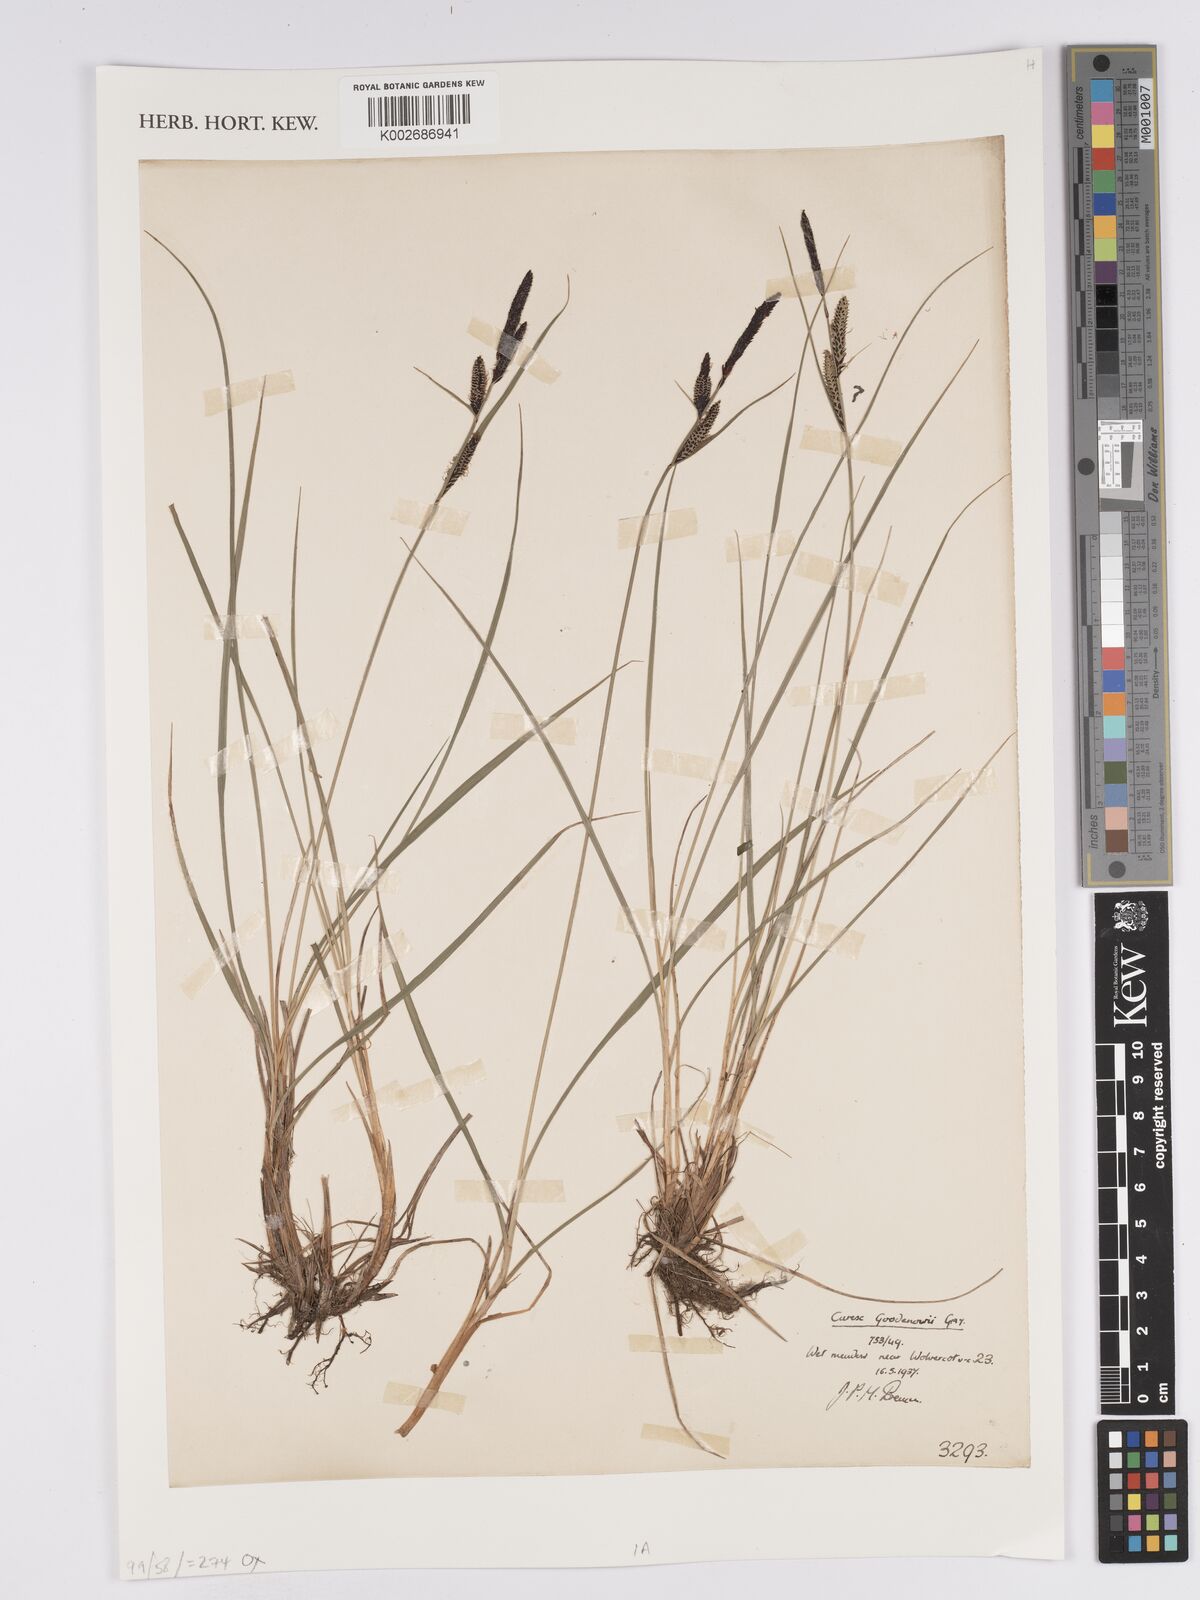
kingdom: Plantae
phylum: Tracheophyta
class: Liliopsida
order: Poales
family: Cyperaceae
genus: Carex
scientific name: Carex nigra
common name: Common sedge
